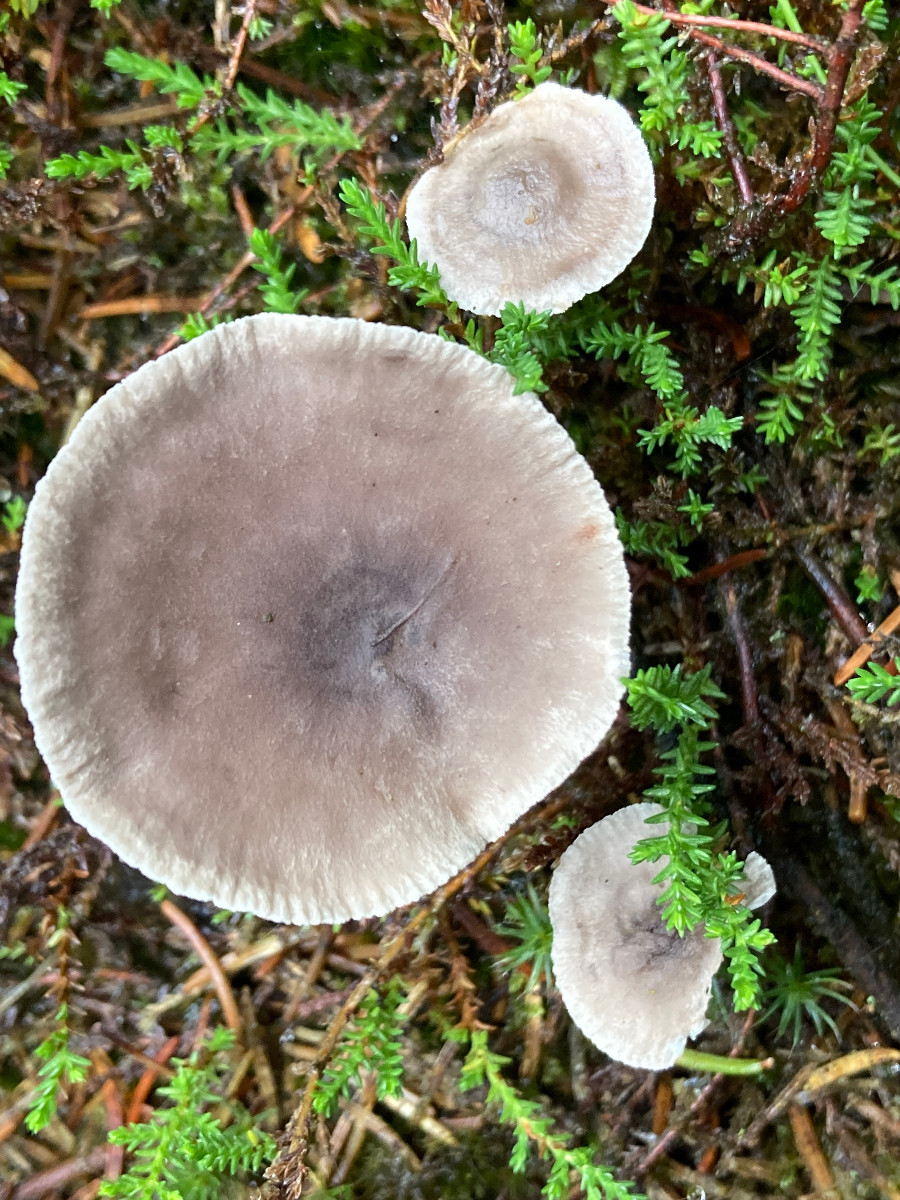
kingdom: Fungi
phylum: Basidiomycota
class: Agaricomycetes
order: Agaricales
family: Hygrophoraceae
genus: Cantharellula
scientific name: Cantharellula umbonata
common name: rødmende gaffelblad
